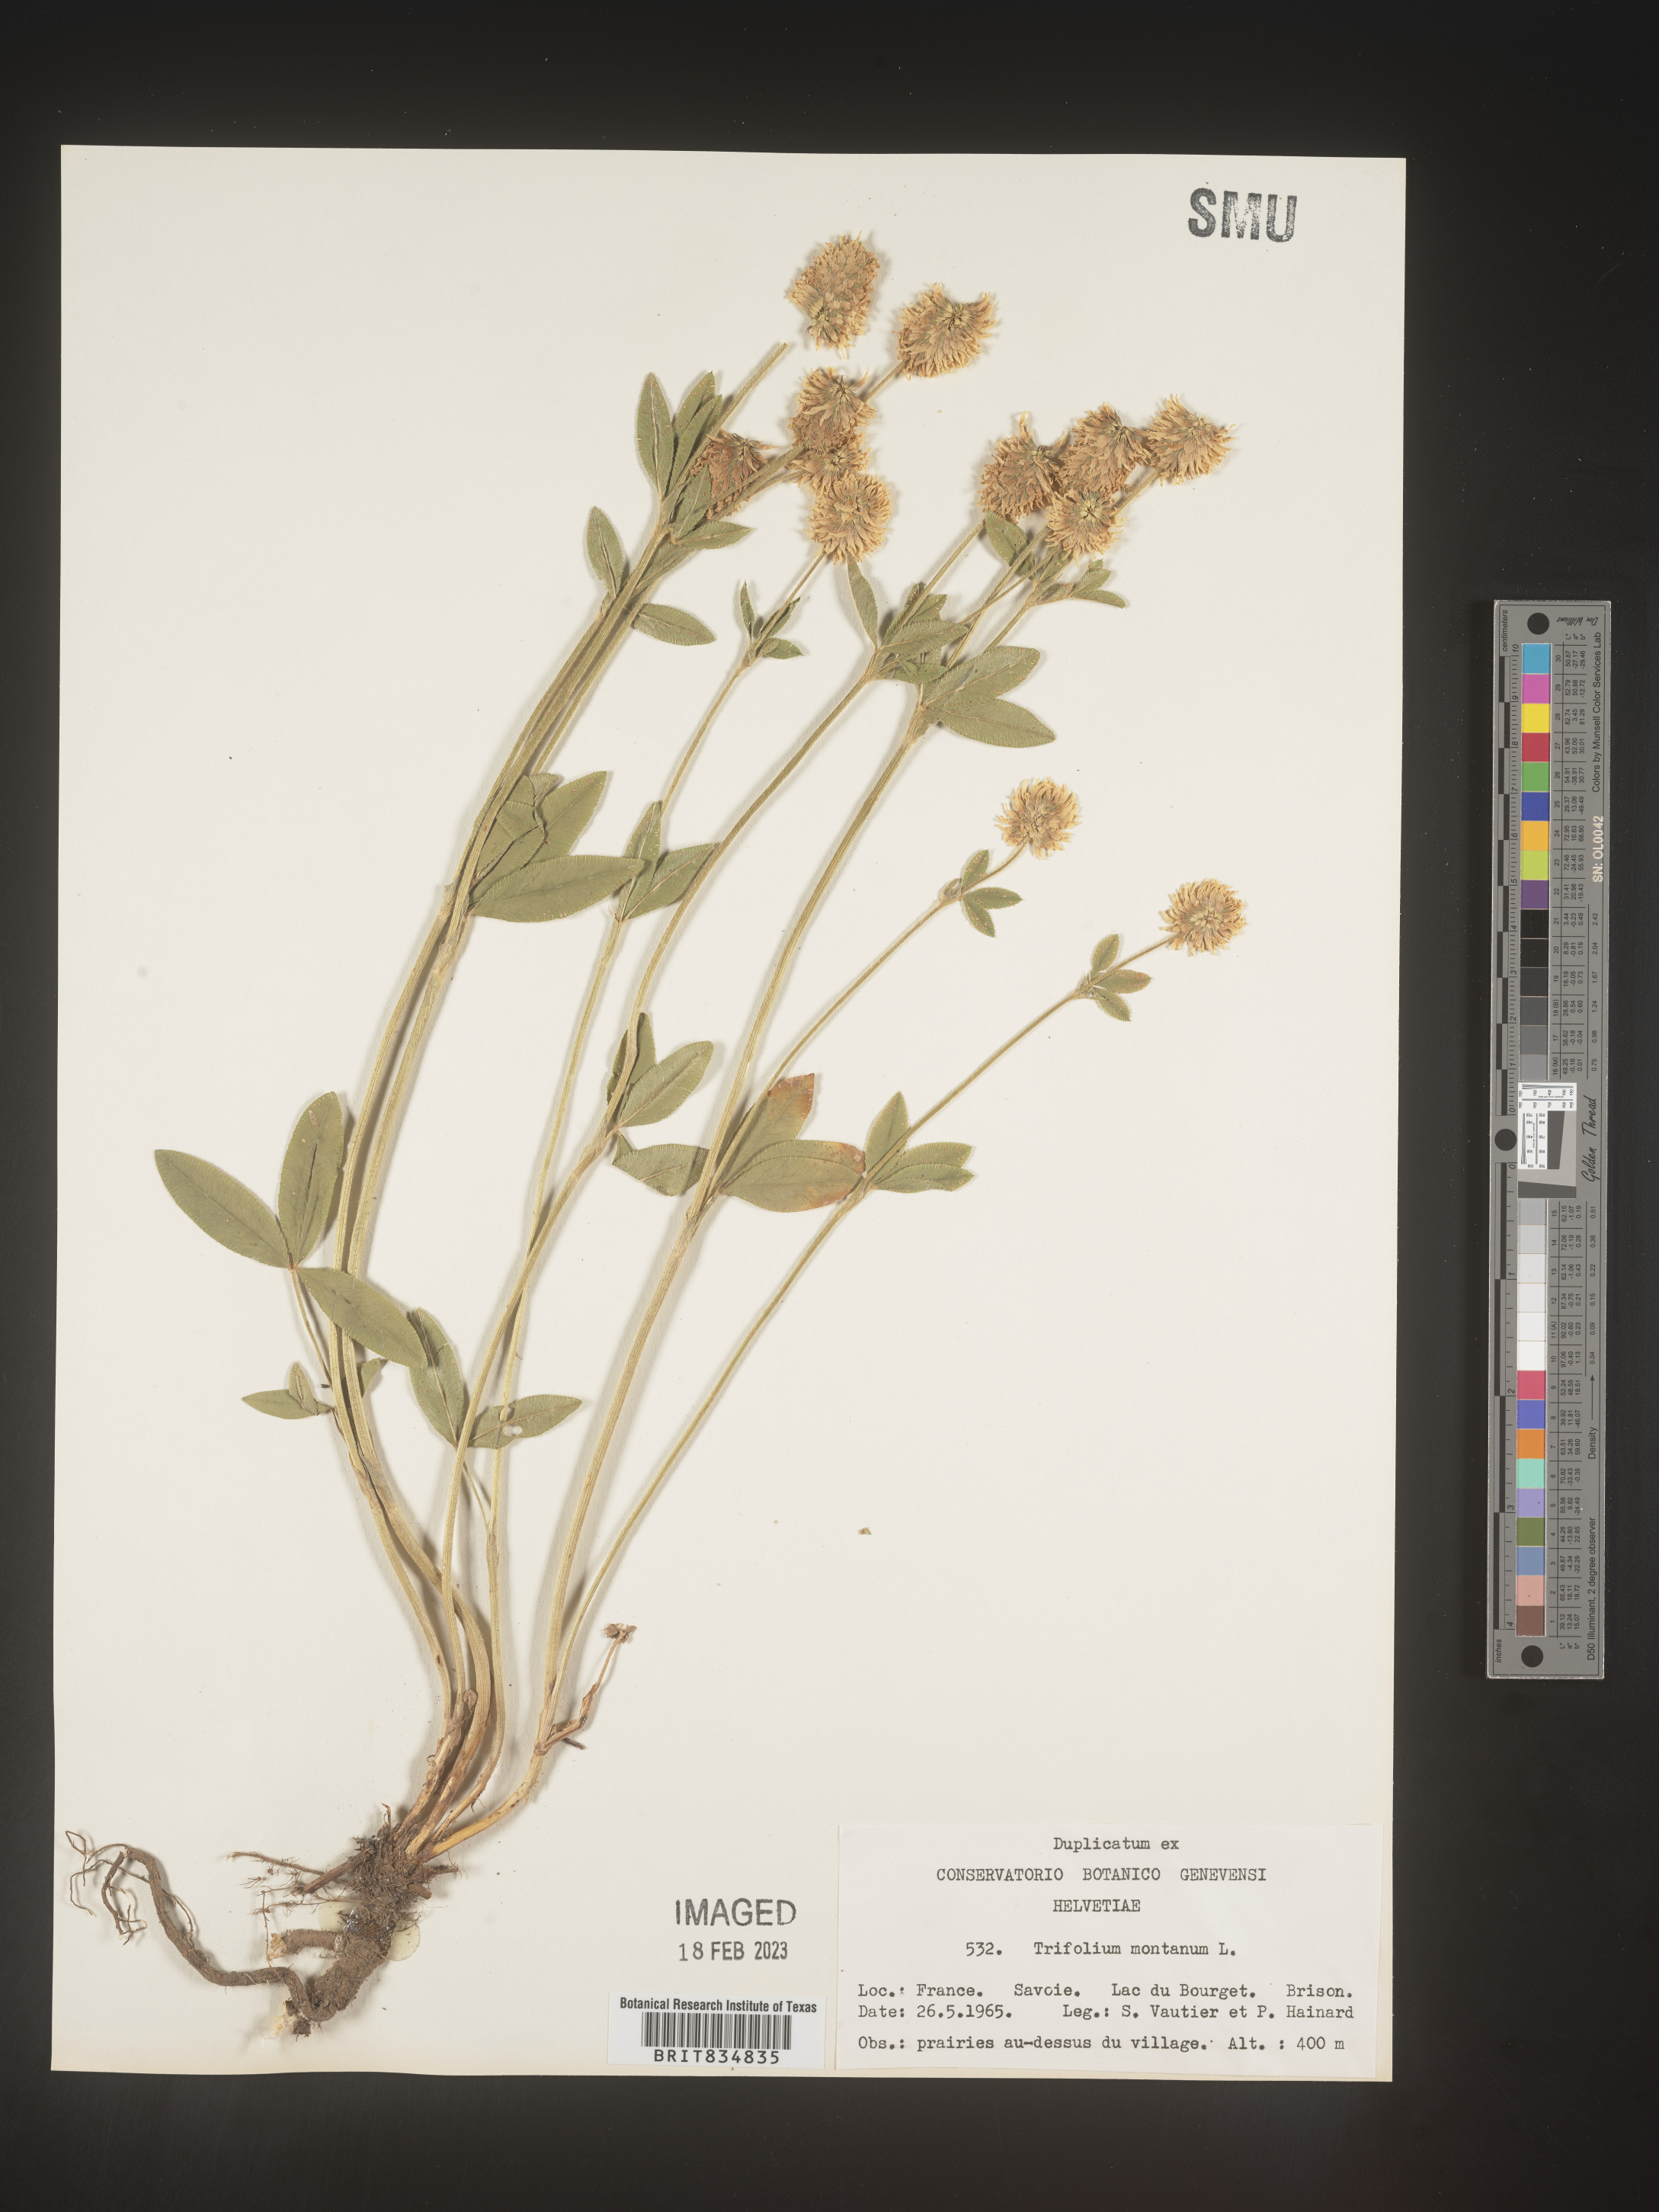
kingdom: Plantae
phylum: Tracheophyta
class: Magnoliopsida
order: Fabales
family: Fabaceae
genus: Trifolium
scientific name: Trifolium
